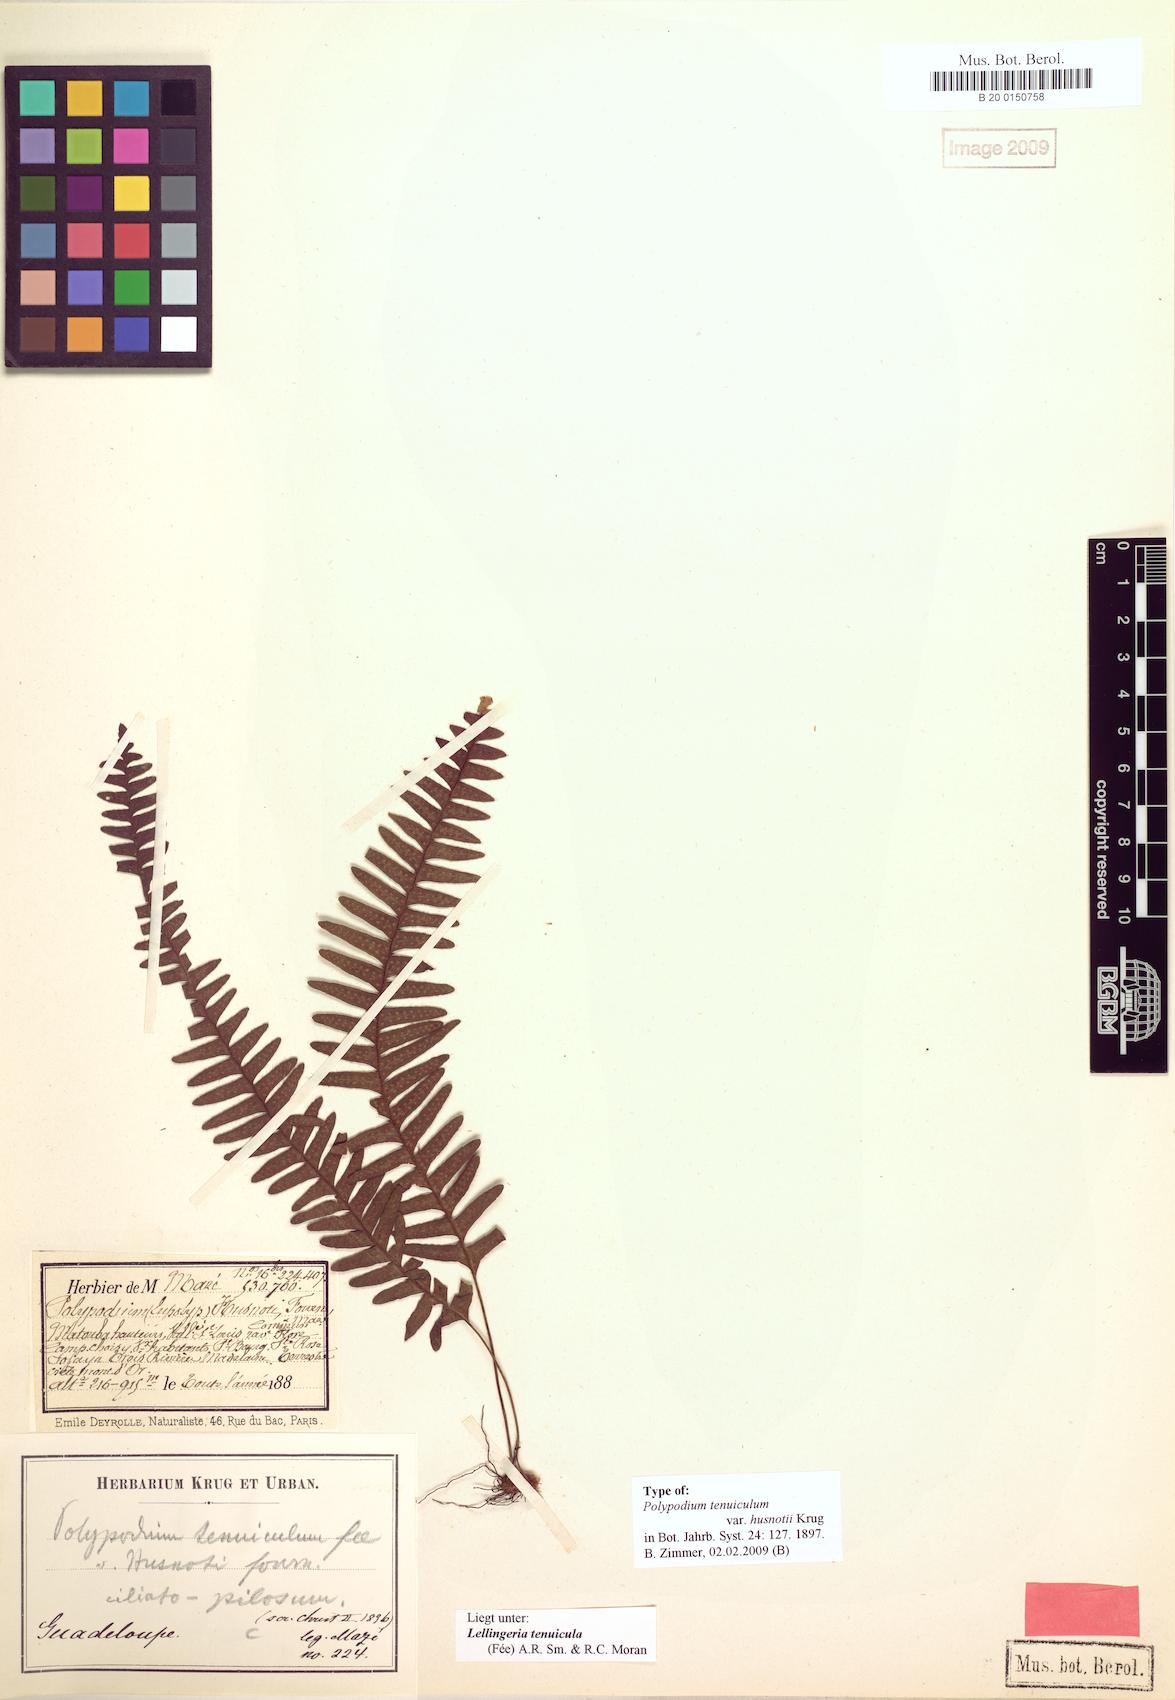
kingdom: Plantae
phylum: Tracheophyta
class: Polypodiopsida
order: Polypodiales
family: Polypodiaceae
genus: Terpsichore
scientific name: Terpsichore eggersii
